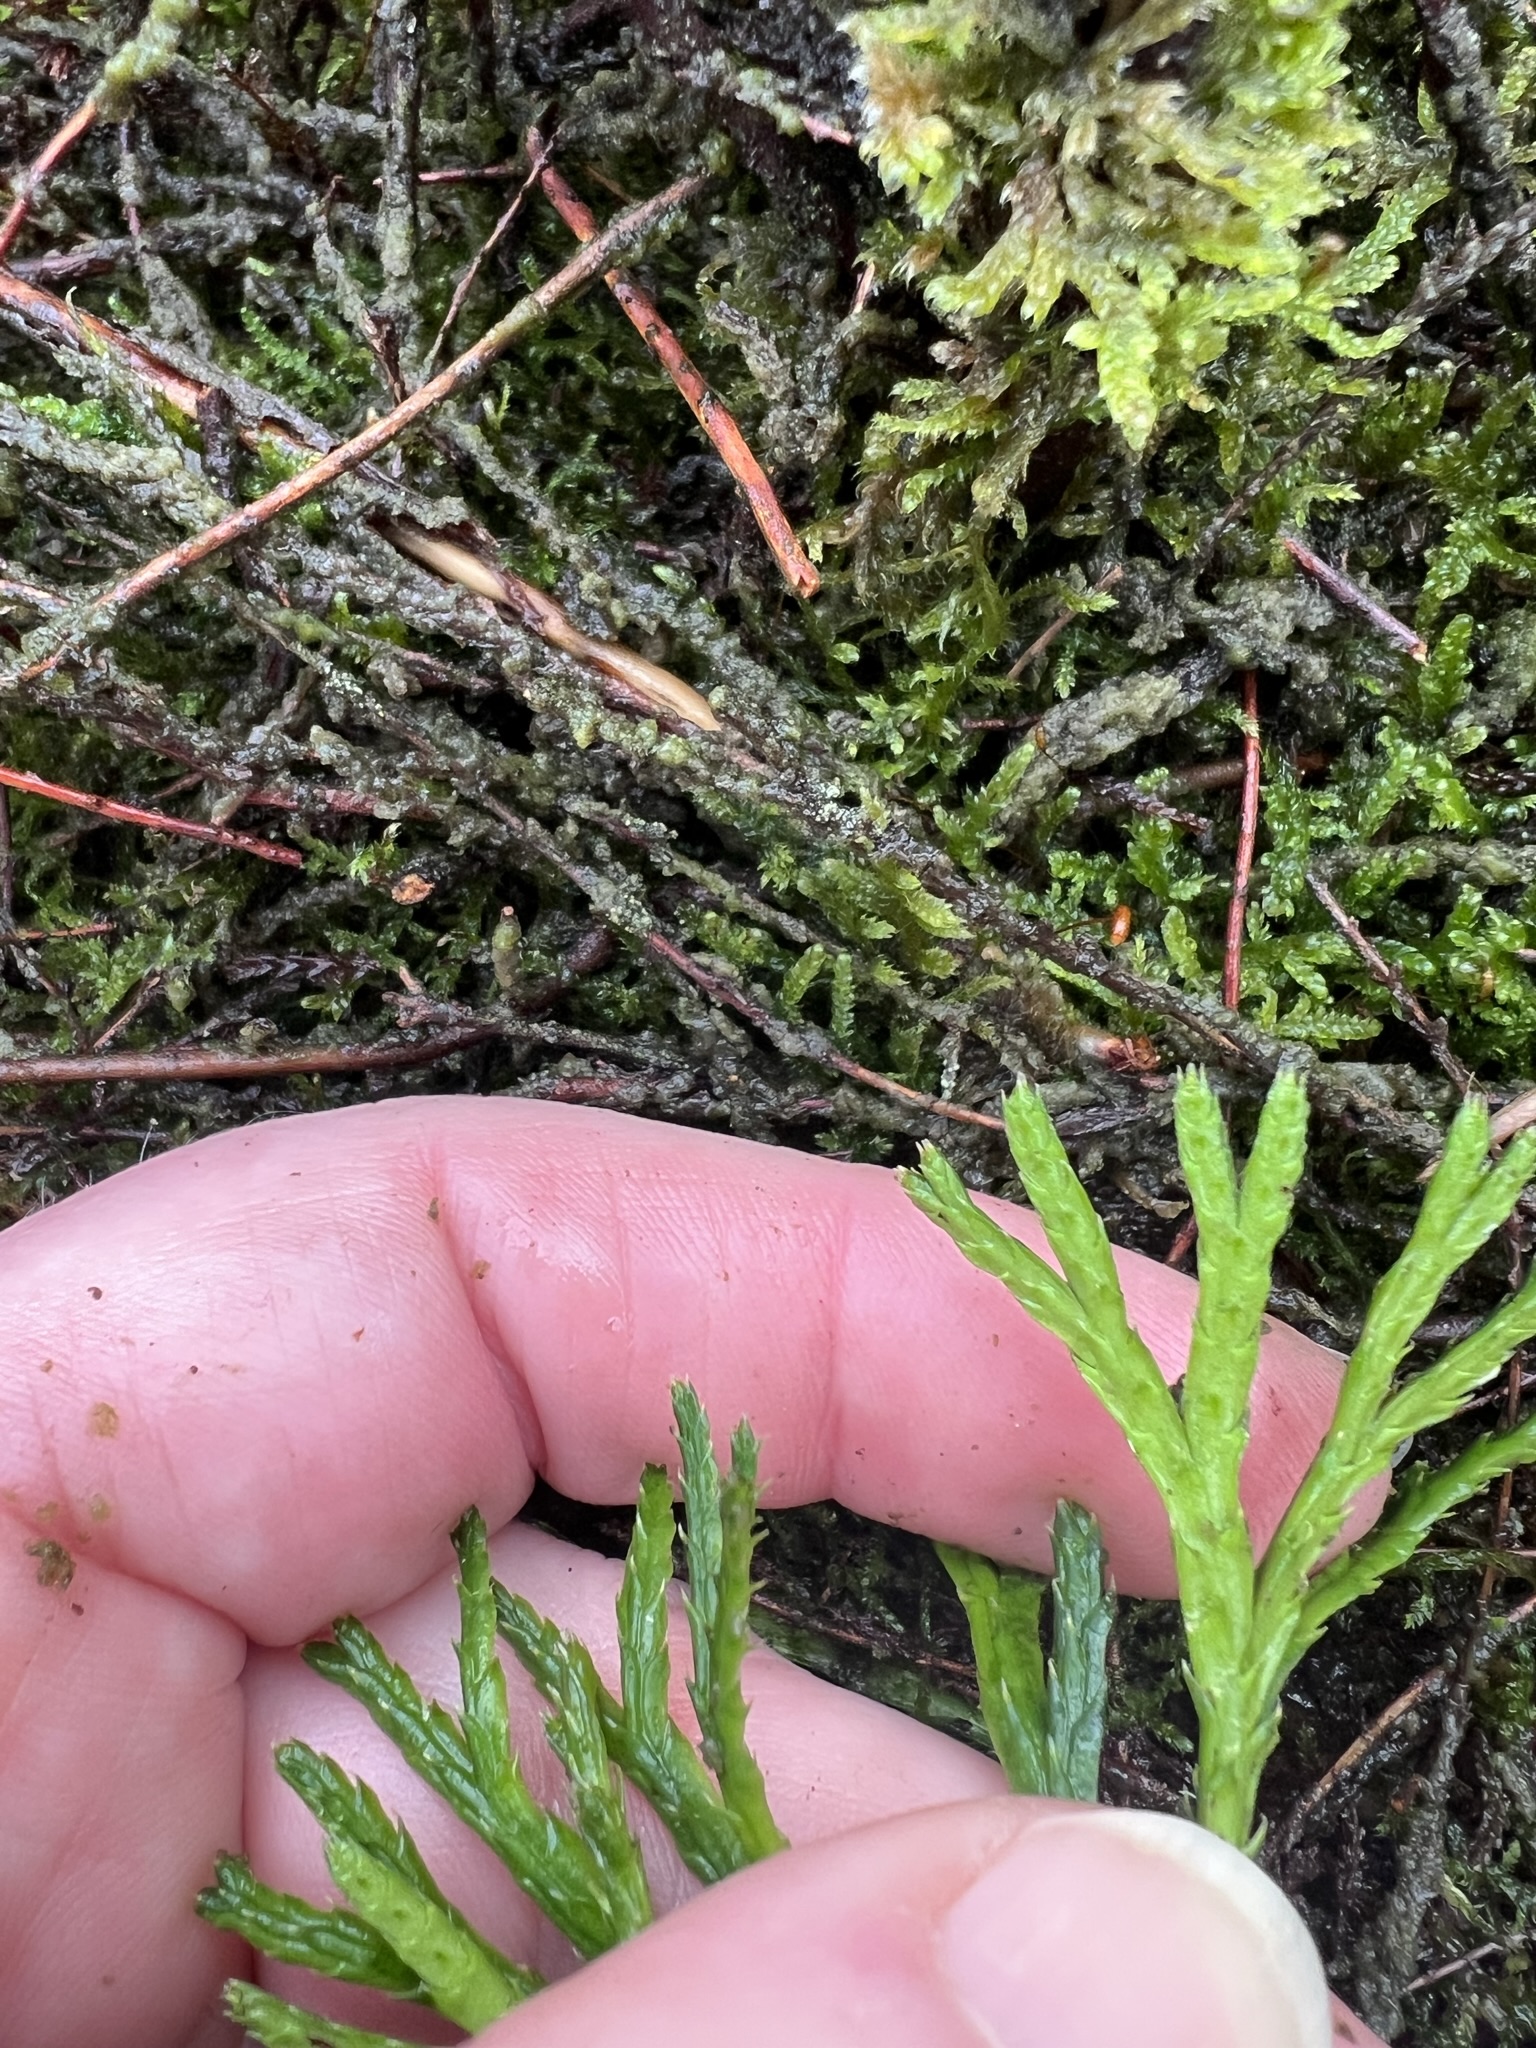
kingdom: Plantae
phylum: Tracheophyta
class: Lycopodiopsida
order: Lycopodiales
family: Lycopodiaceae
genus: Diphasiastrum
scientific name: Diphasiastrum complanatum
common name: Flad ulvefod
